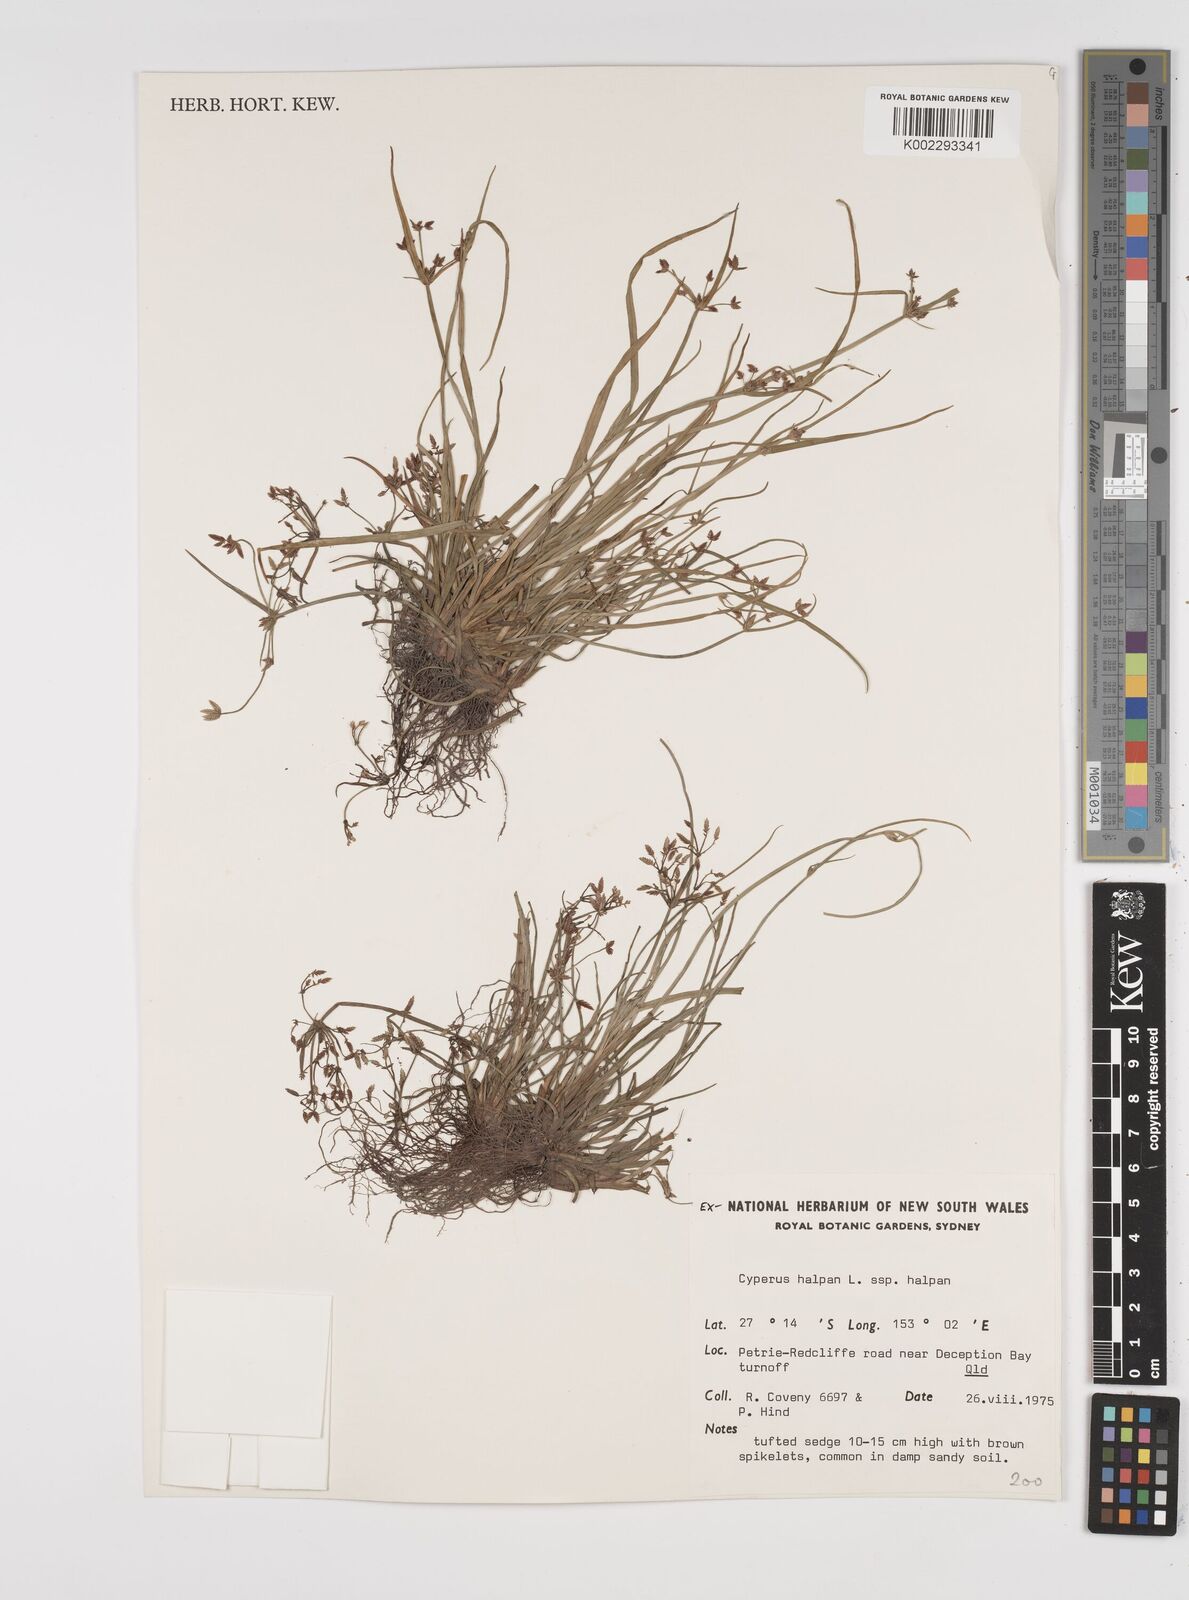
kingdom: Plantae
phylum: Tracheophyta
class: Liliopsida
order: Poales
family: Cyperaceae
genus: Cyperus
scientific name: Cyperus haspan
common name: Haspan flatsedge
